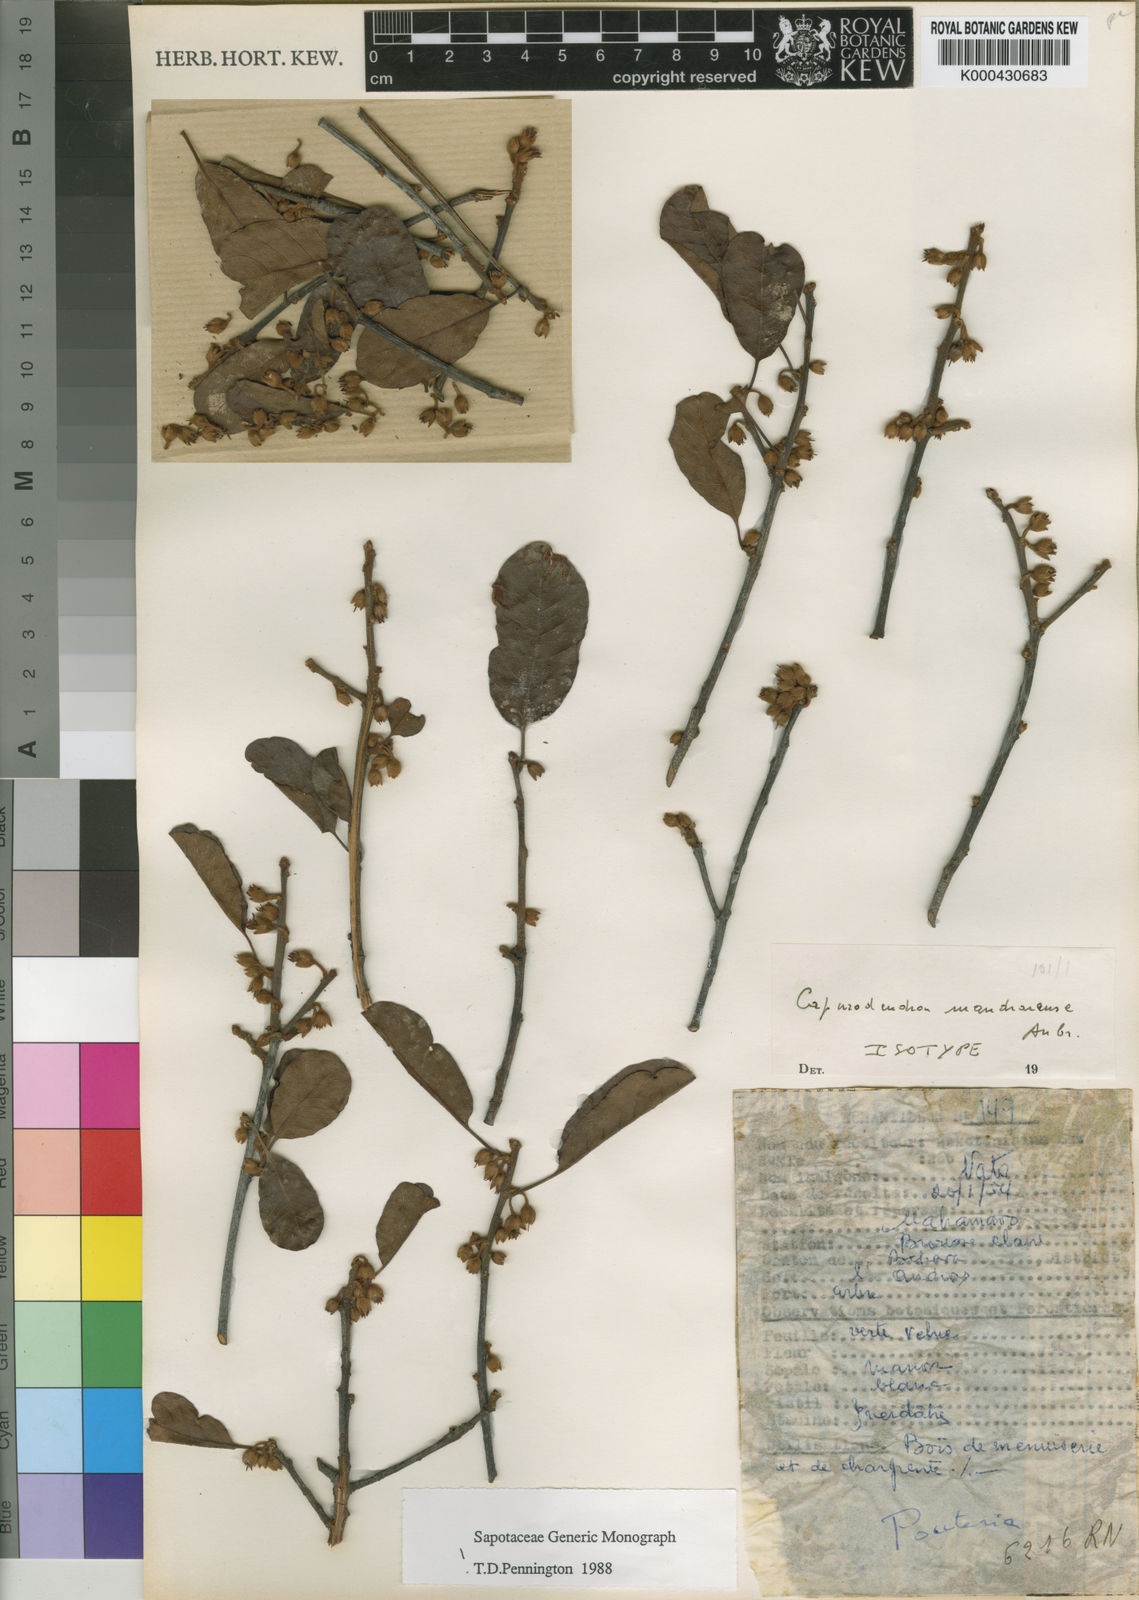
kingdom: Plantae
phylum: Tracheophyta
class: Magnoliopsida
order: Ericales
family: Sapotaceae
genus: Capurodendron
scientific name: Capurodendron
